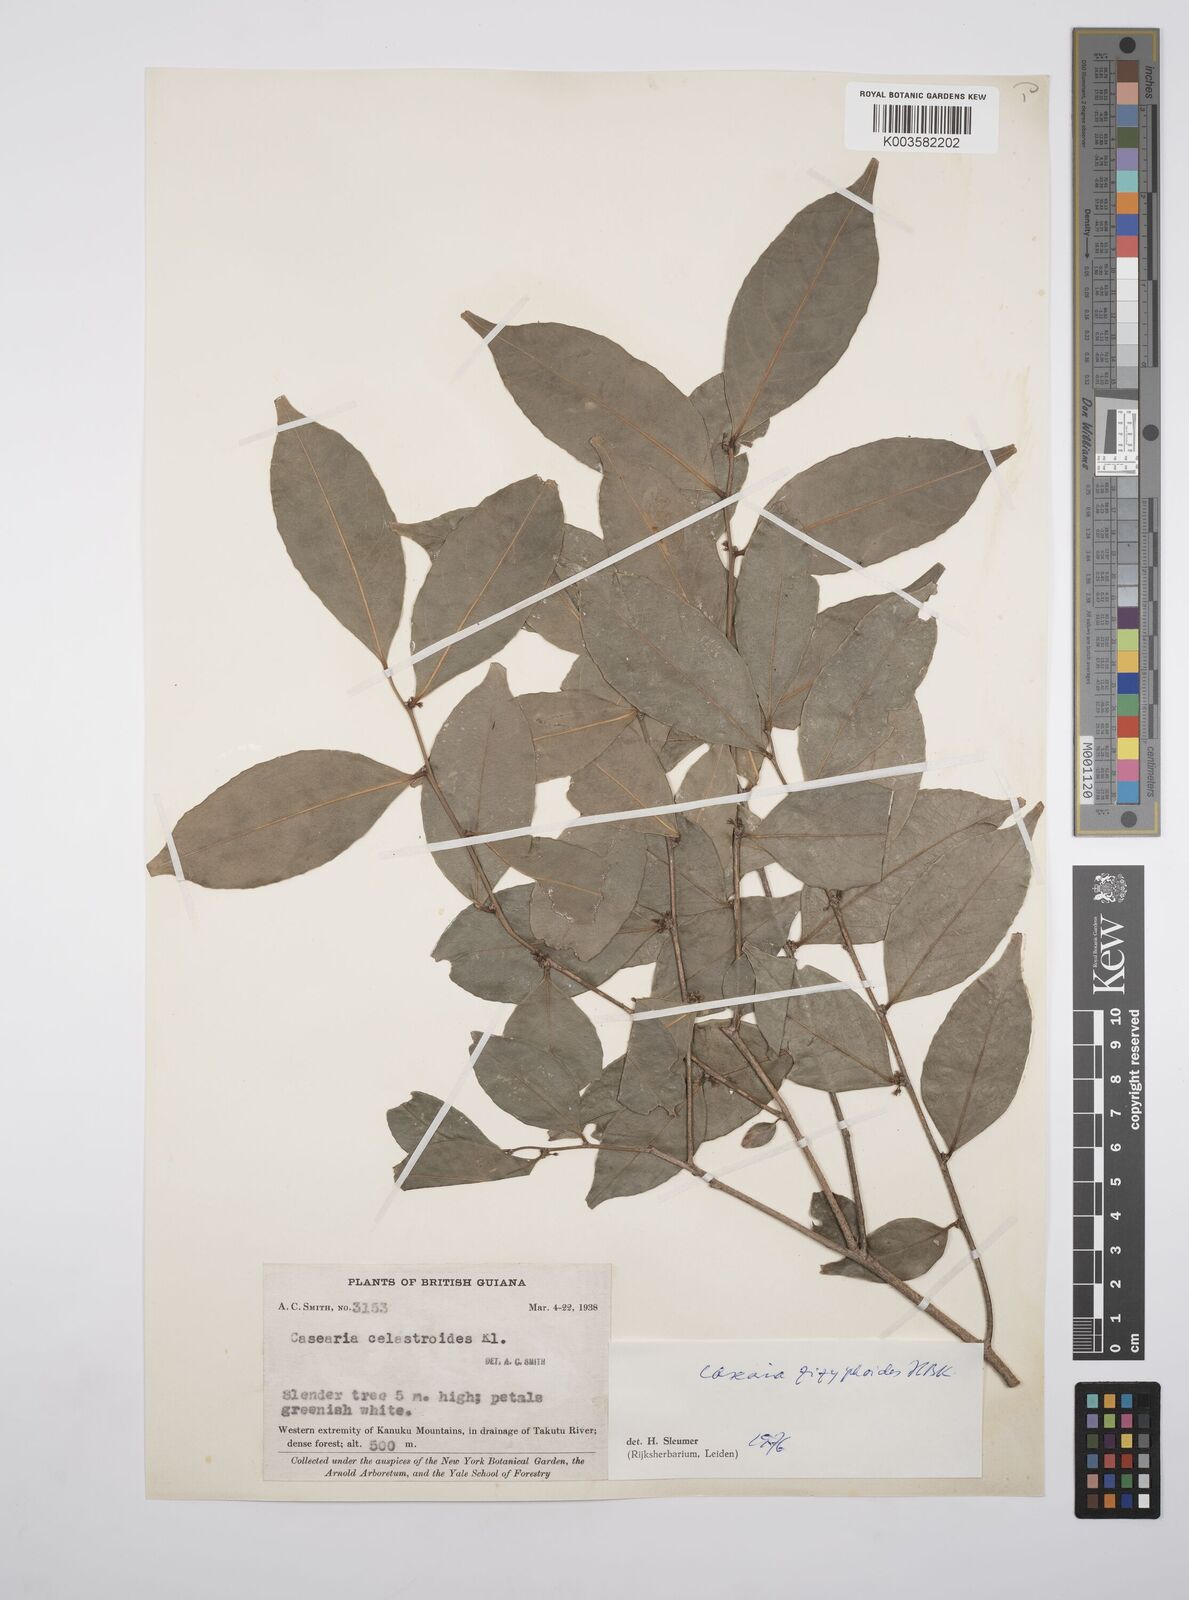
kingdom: Plantae
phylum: Tracheophyta
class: Magnoliopsida
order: Malpighiales
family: Salicaceae
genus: Casearia
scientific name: Casearia zizyphoides
